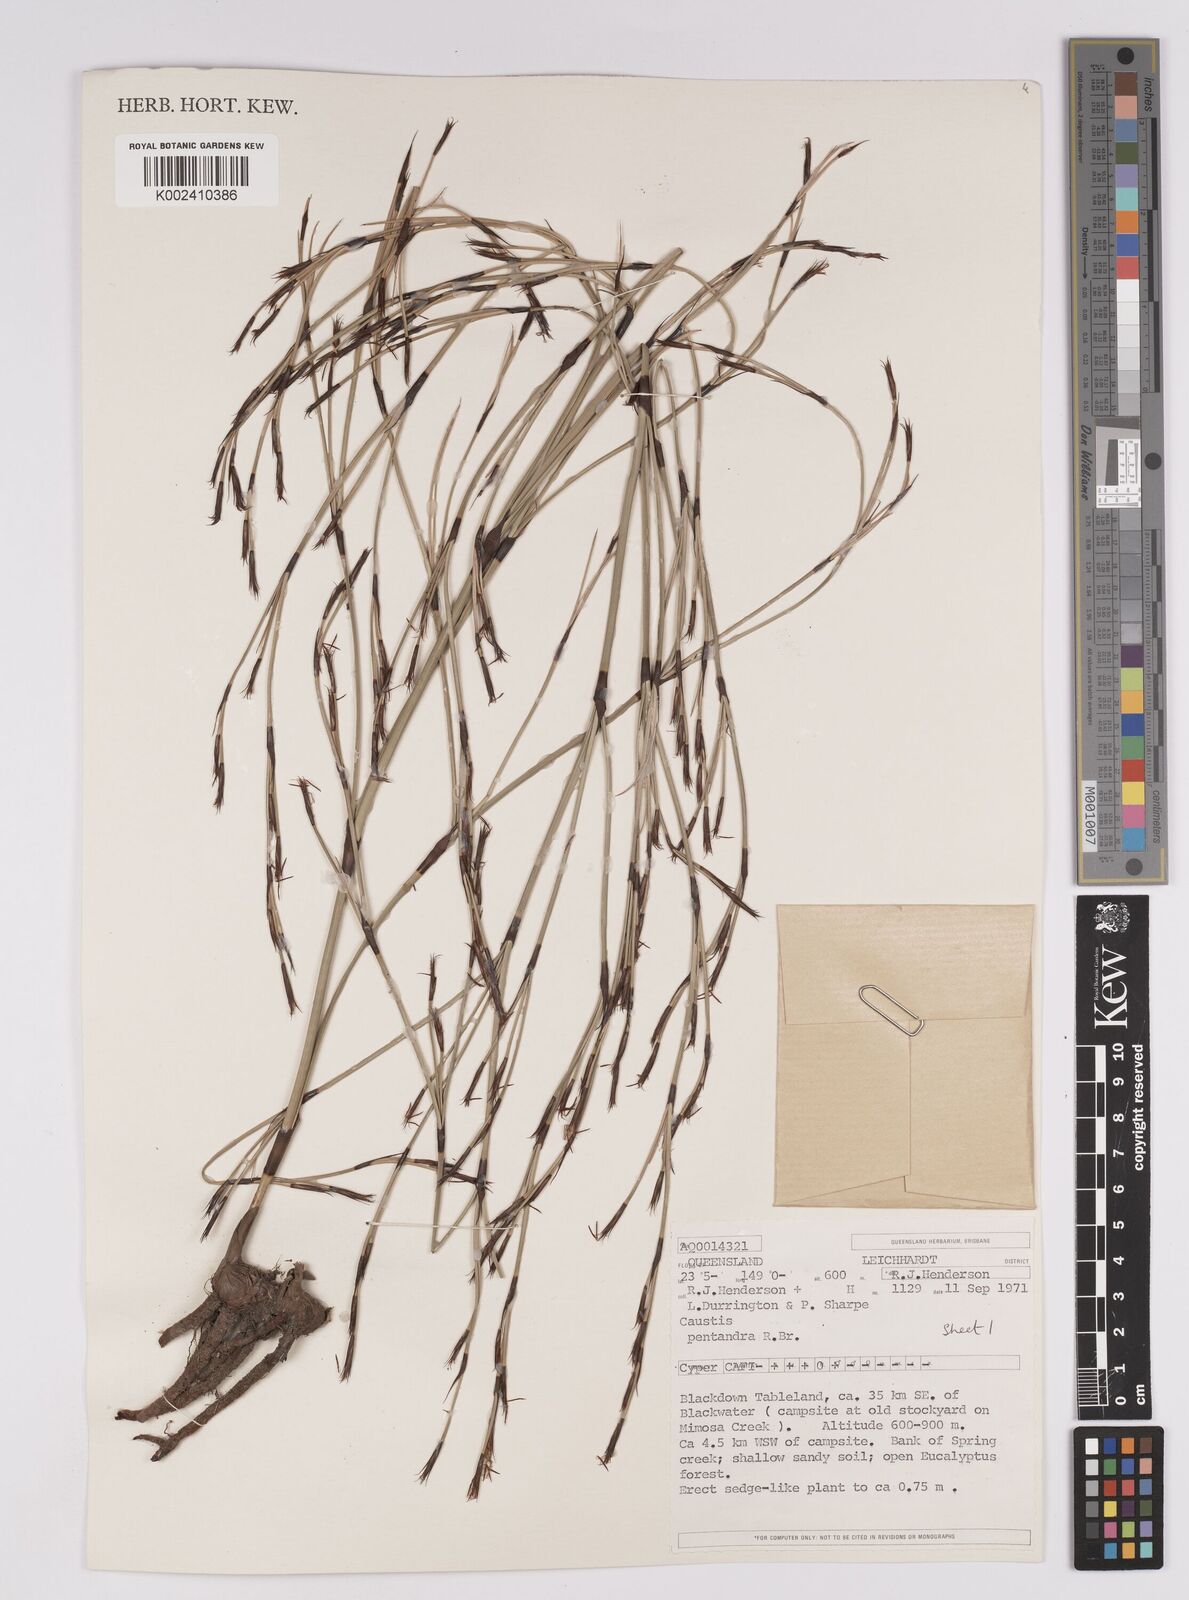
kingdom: Plantae
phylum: Tracheophyta
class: Liliopsida
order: Poales
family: Cyperaceae
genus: Caustis
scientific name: Caustis pentandra
